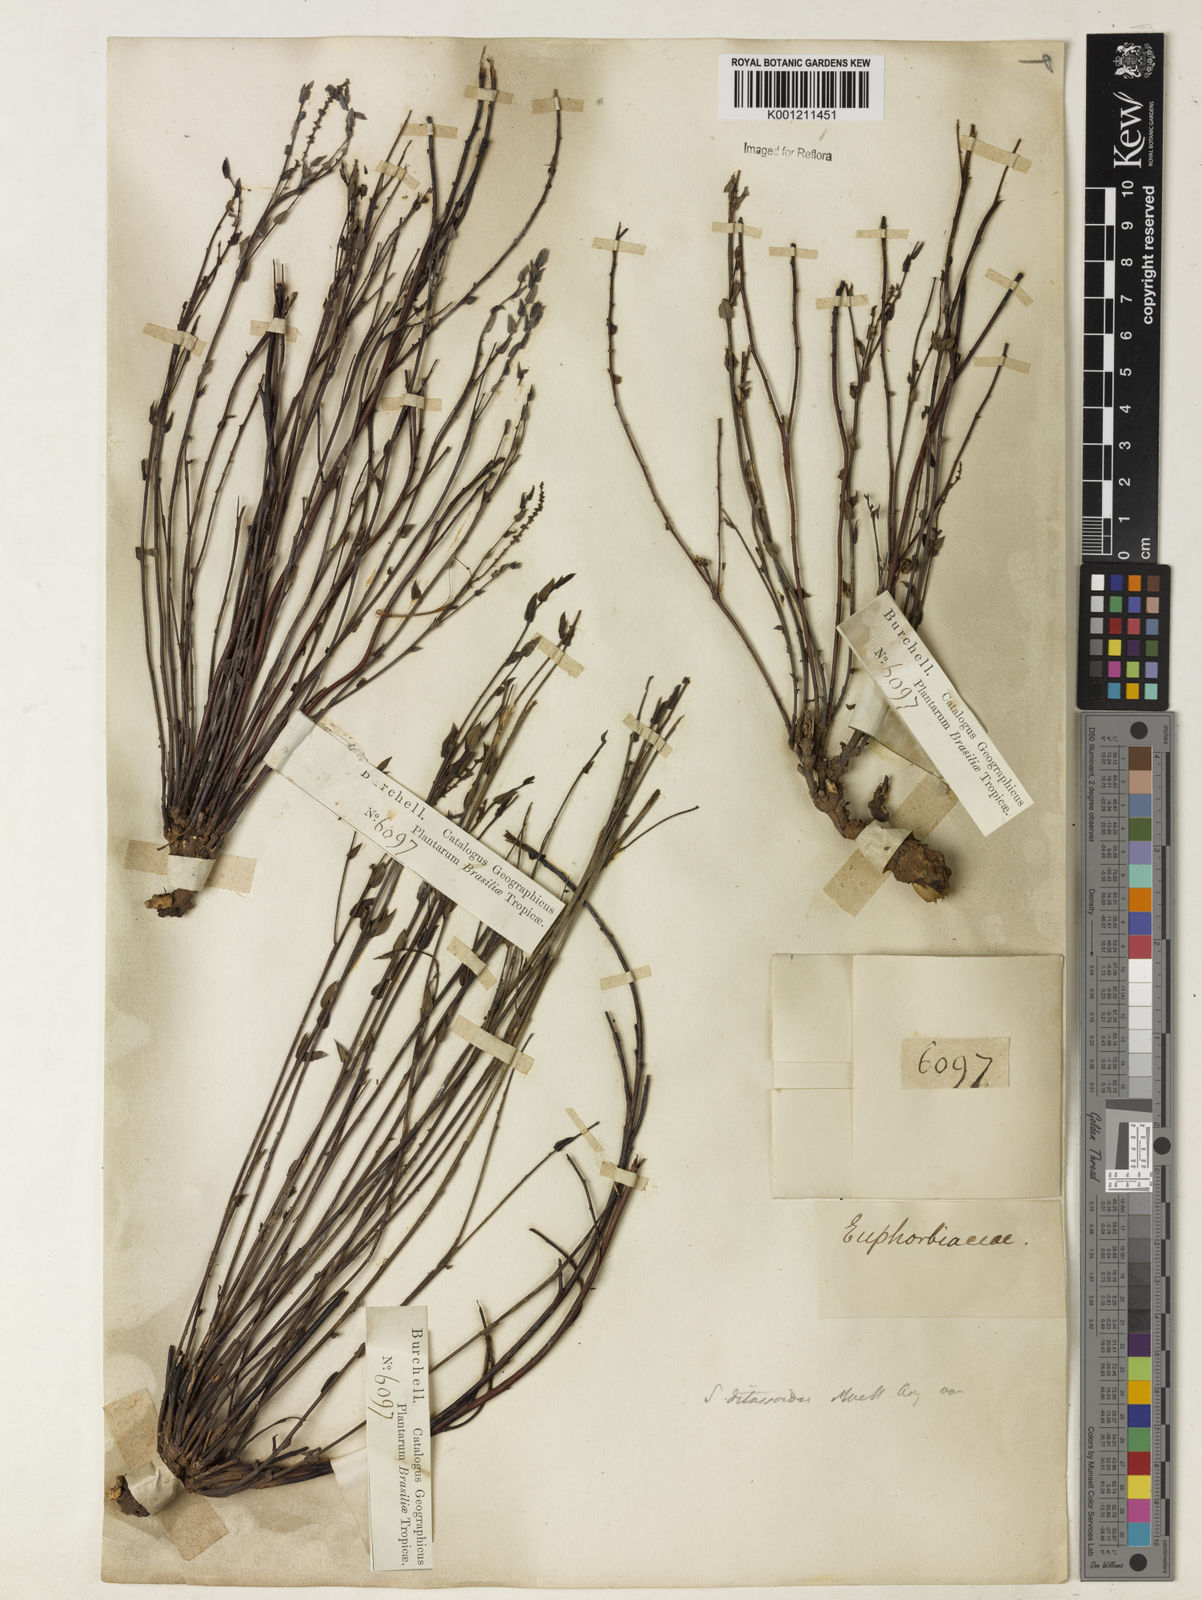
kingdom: Plantae
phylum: Tracheophyta
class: Magnoliopsida
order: Malpighiales
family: Euphorbiaceae
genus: Microstachys
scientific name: Microstachys ditassoides
